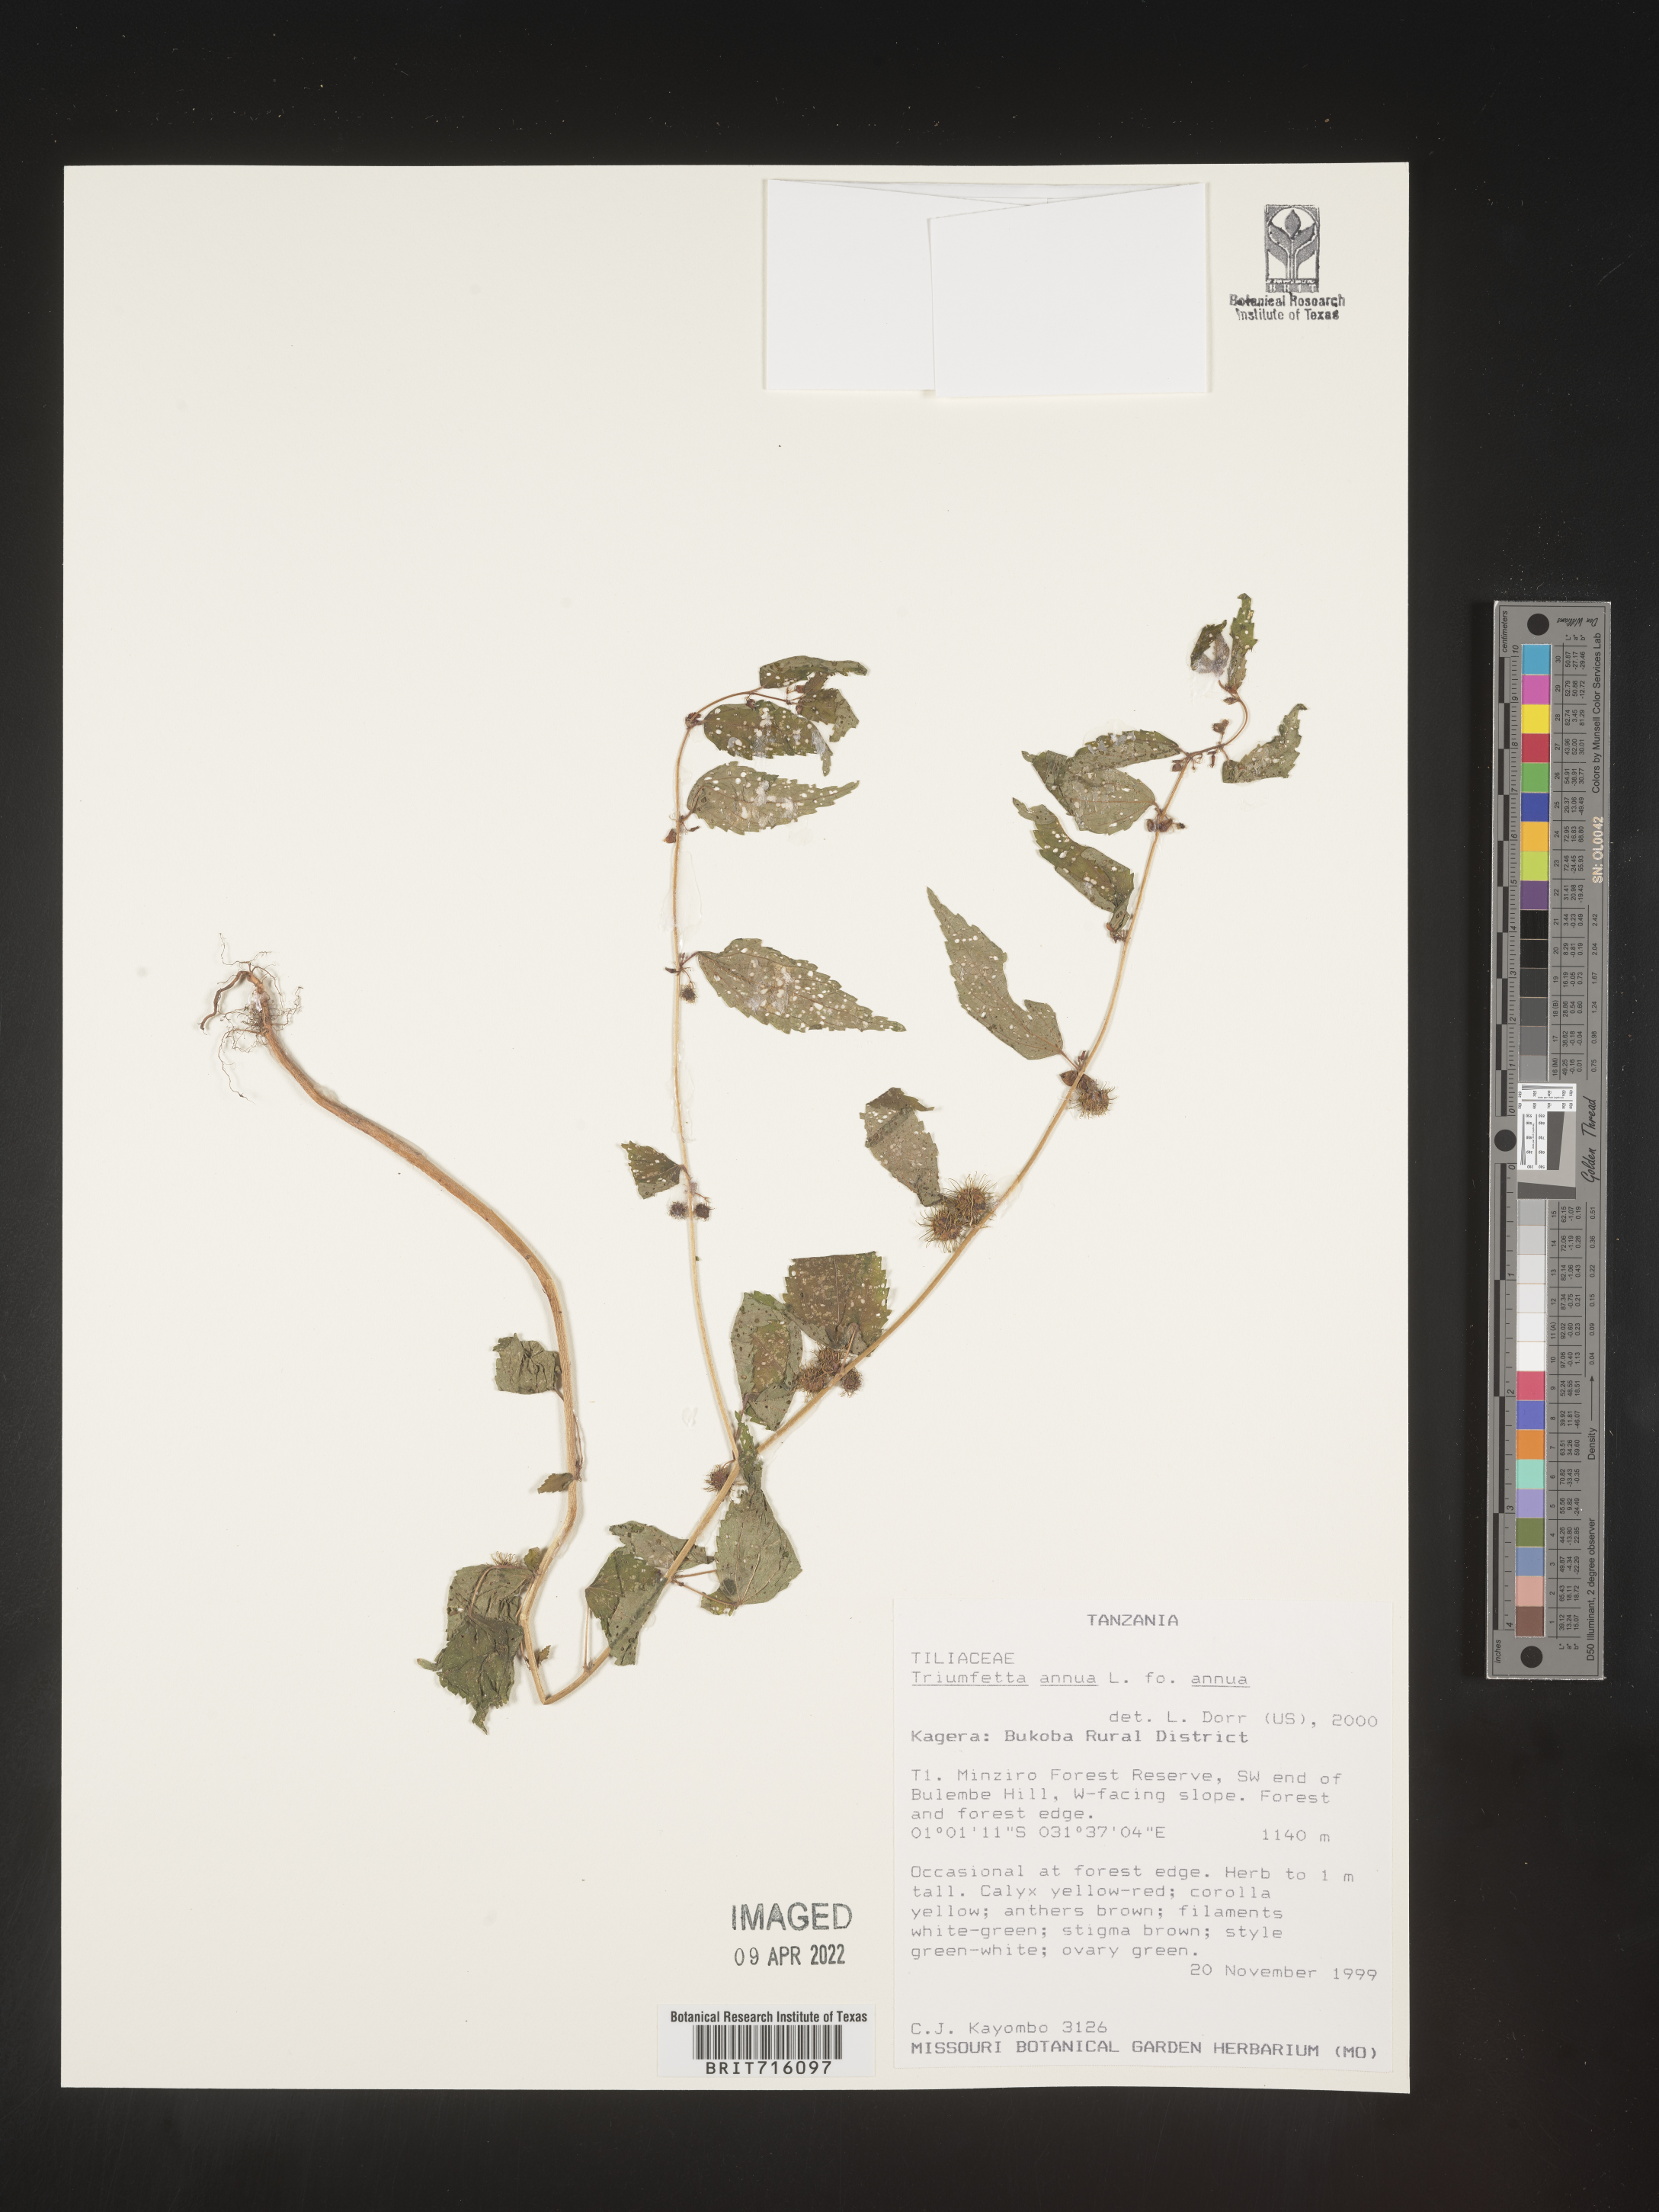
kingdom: Plantae
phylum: Tracheophyta
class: Magnoliopsida
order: Malvales
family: Malvaceae
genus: Triumfetta
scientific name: Triumfetta
